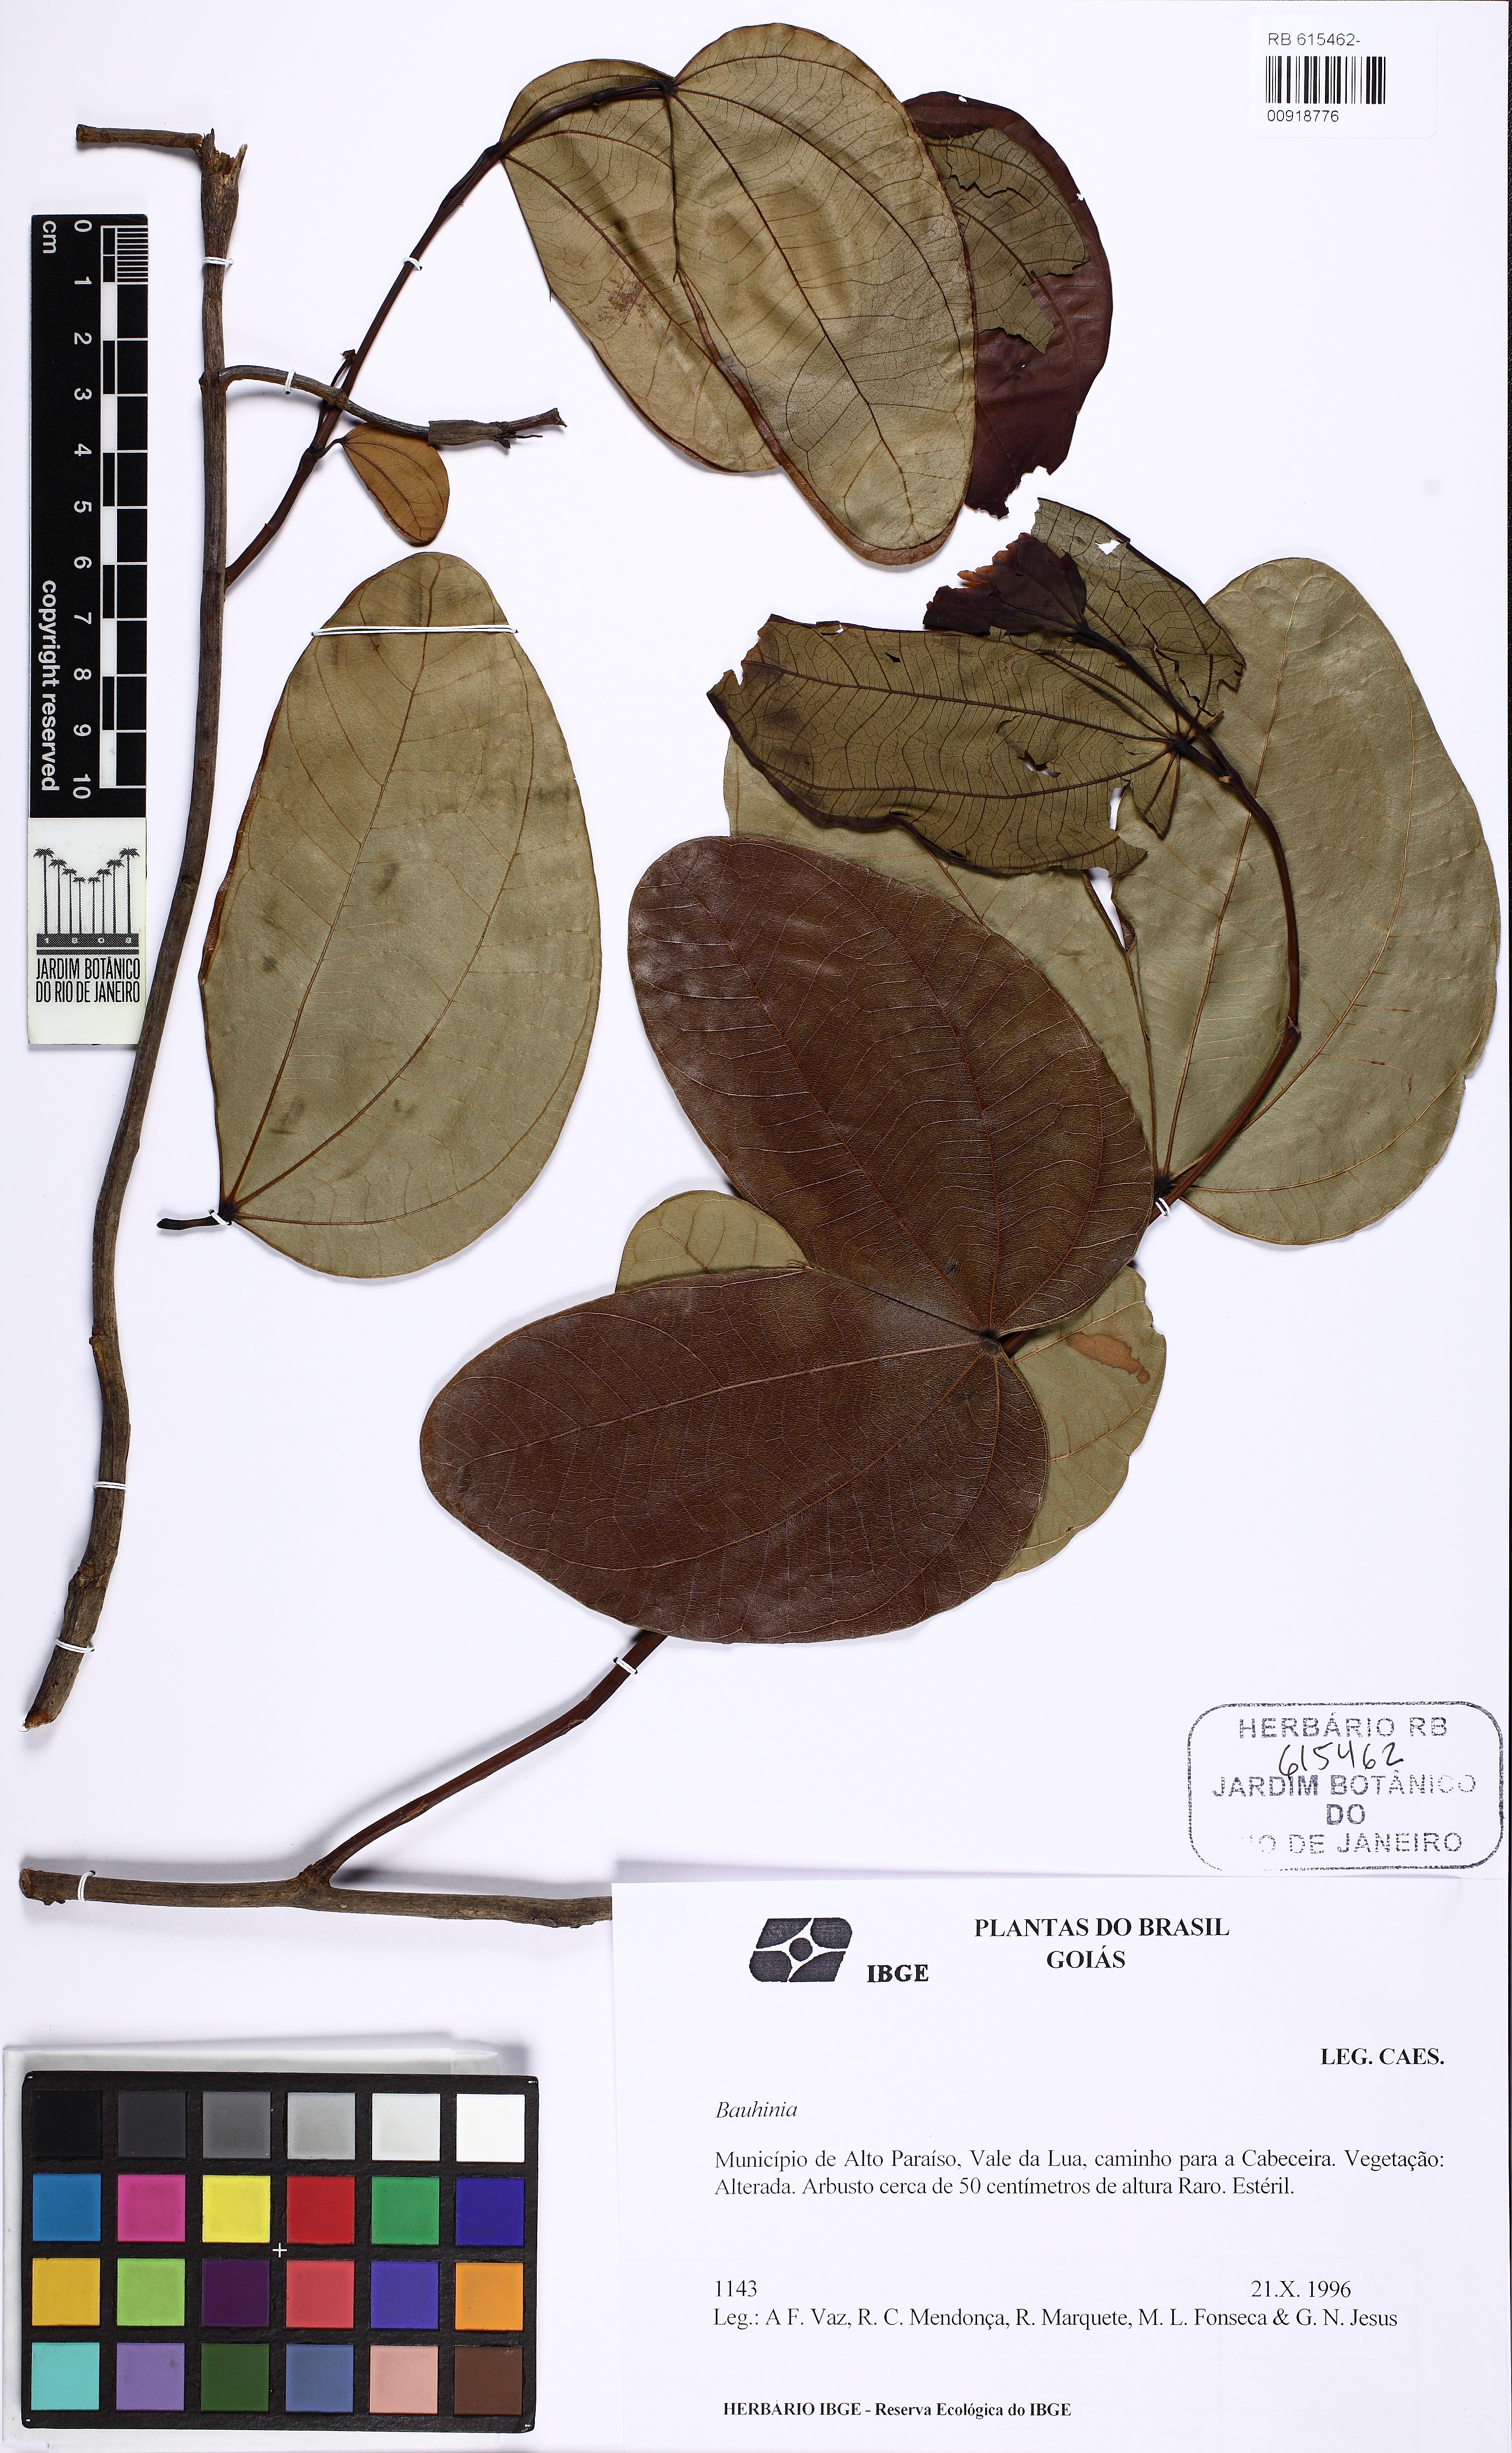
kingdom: Plantae
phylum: Tracheophyta
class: Magnoliopsida
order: Fabales
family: Fabaceae
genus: Bauhinia
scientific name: Bauhinia
